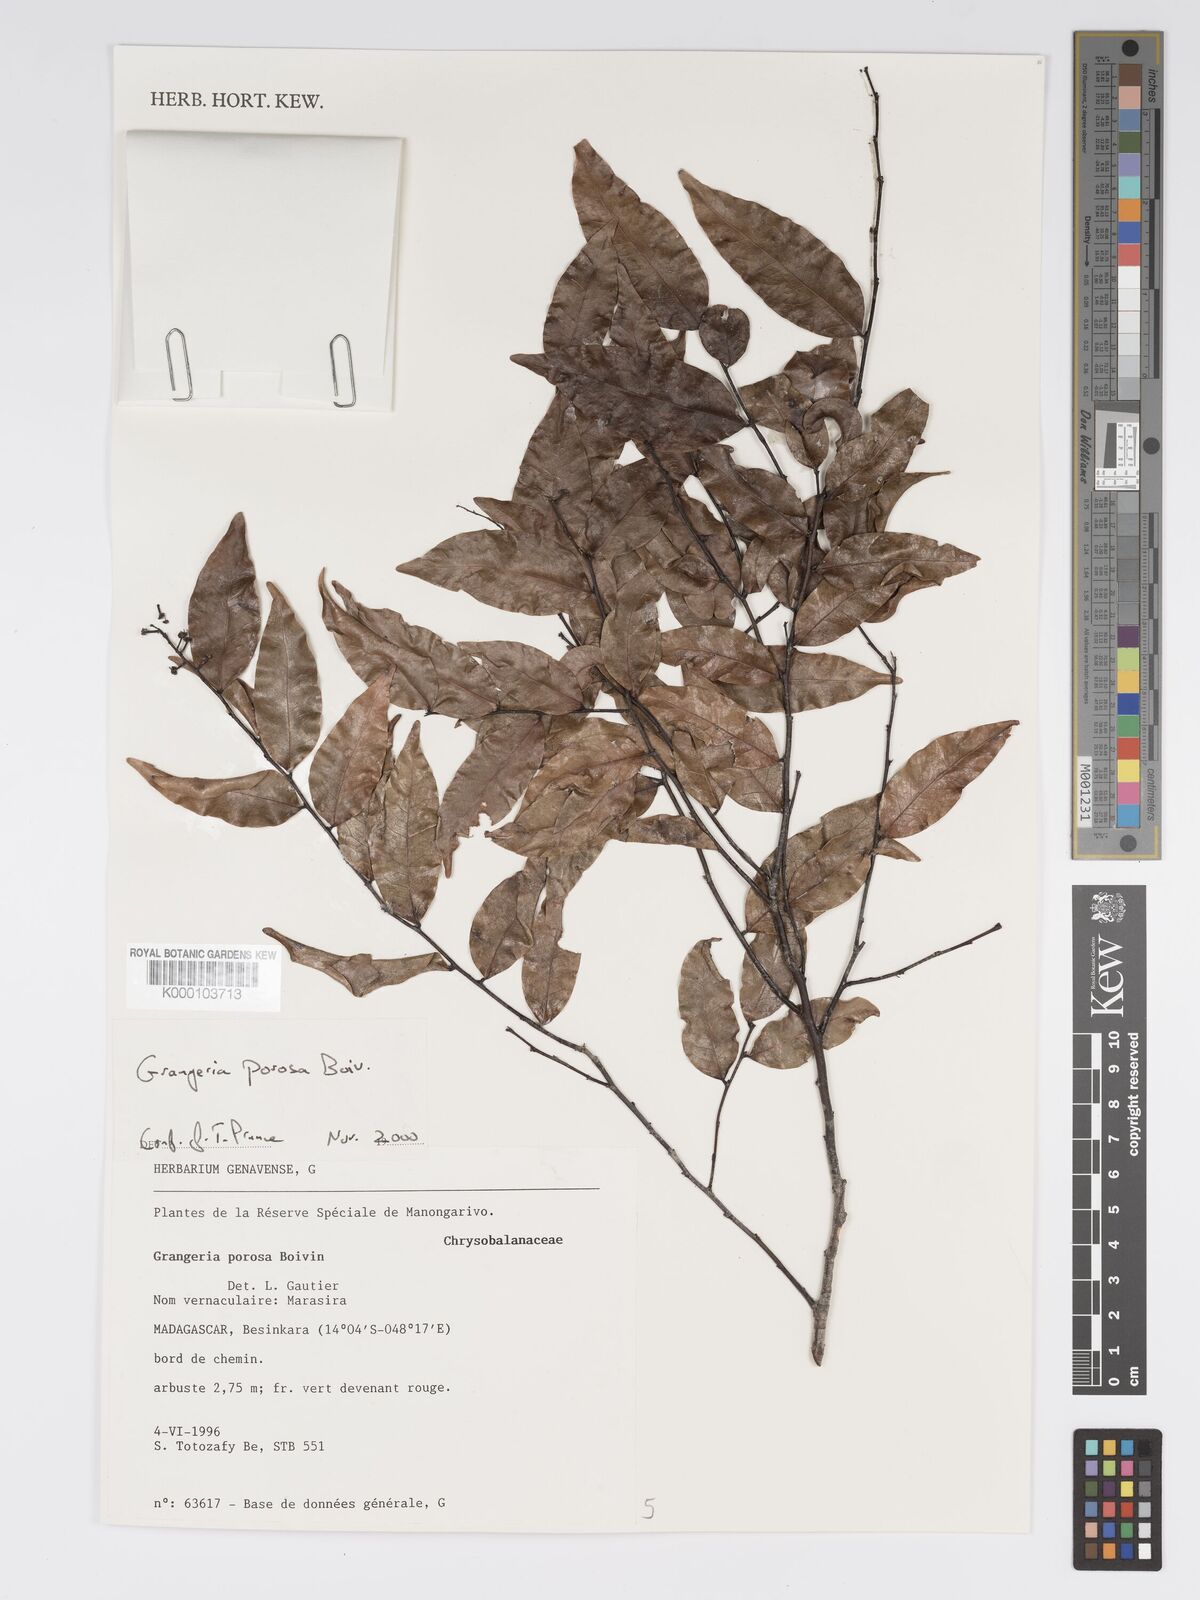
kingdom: Plantae
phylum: Tracheophyta
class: Magnoliopsida
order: Malpighiales
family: Chrysobalanaceae
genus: Grangeria
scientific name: Grangeria
